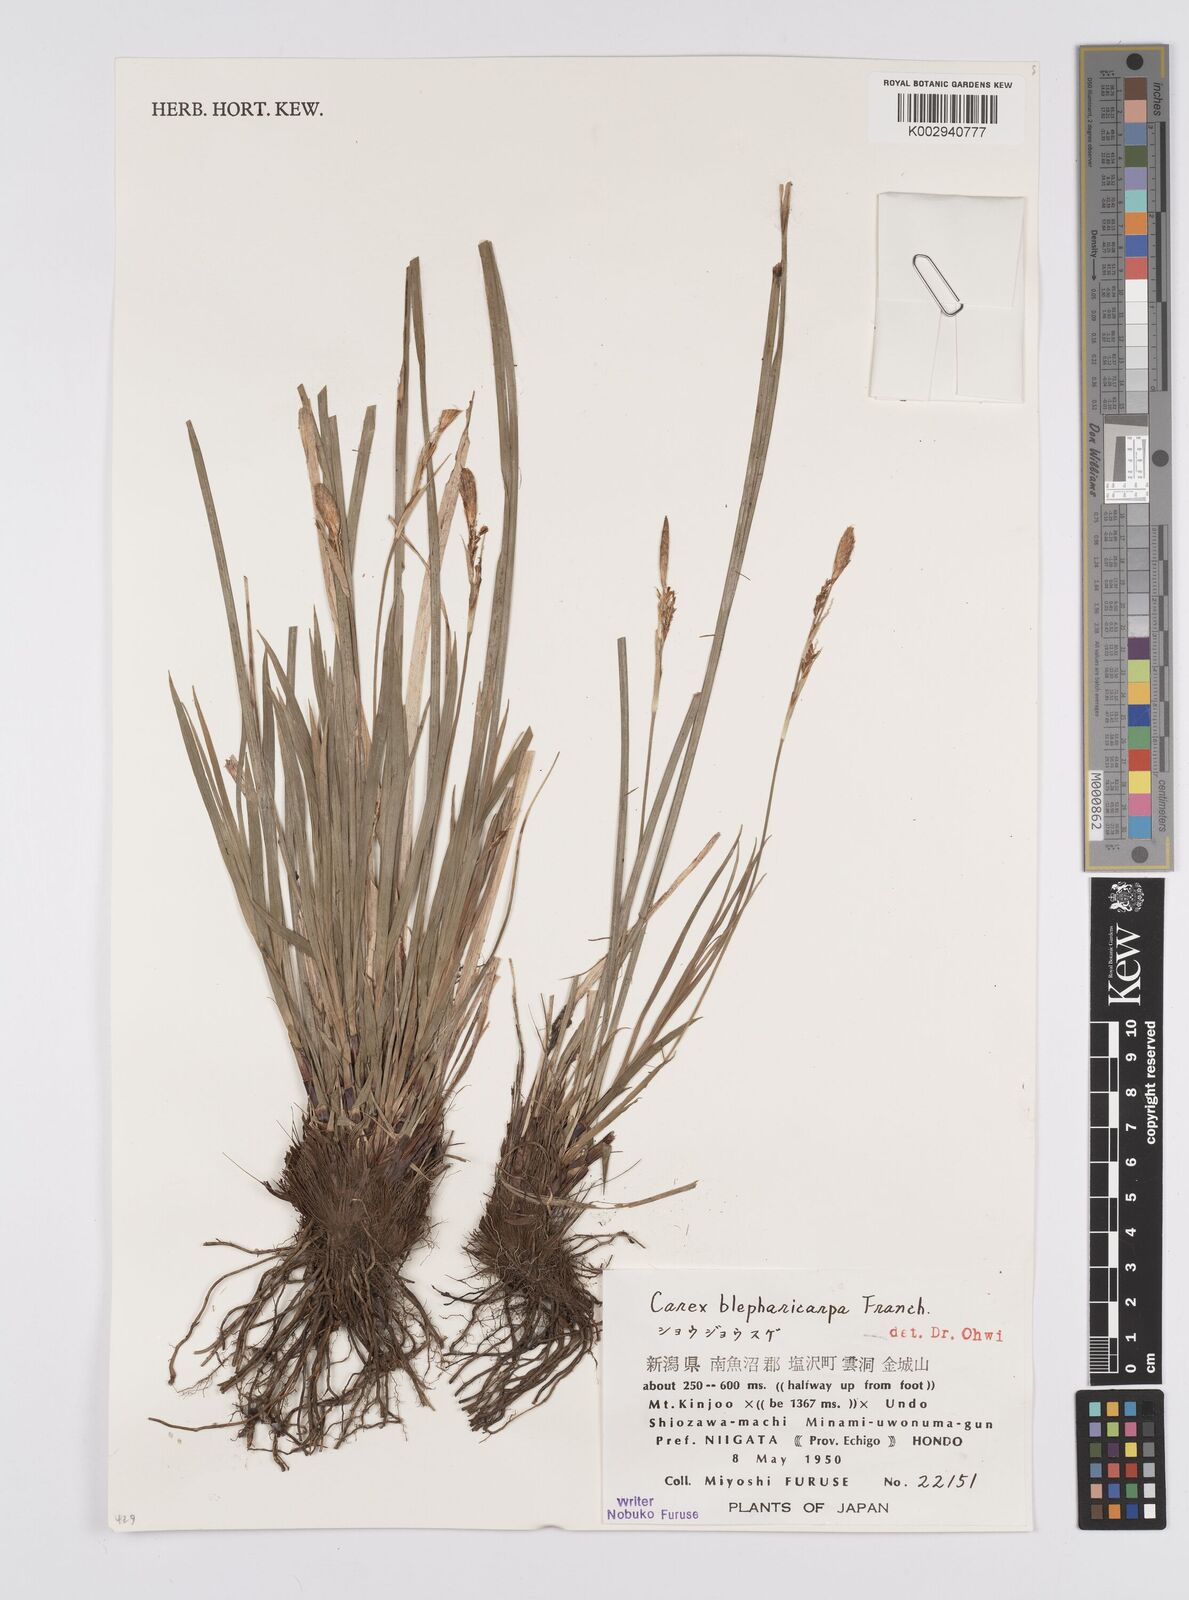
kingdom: Plantae
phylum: Tracheophyta
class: Liliopsida
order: Poales
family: Cyperaceae
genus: Carex
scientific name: Carex blepharicarpa
